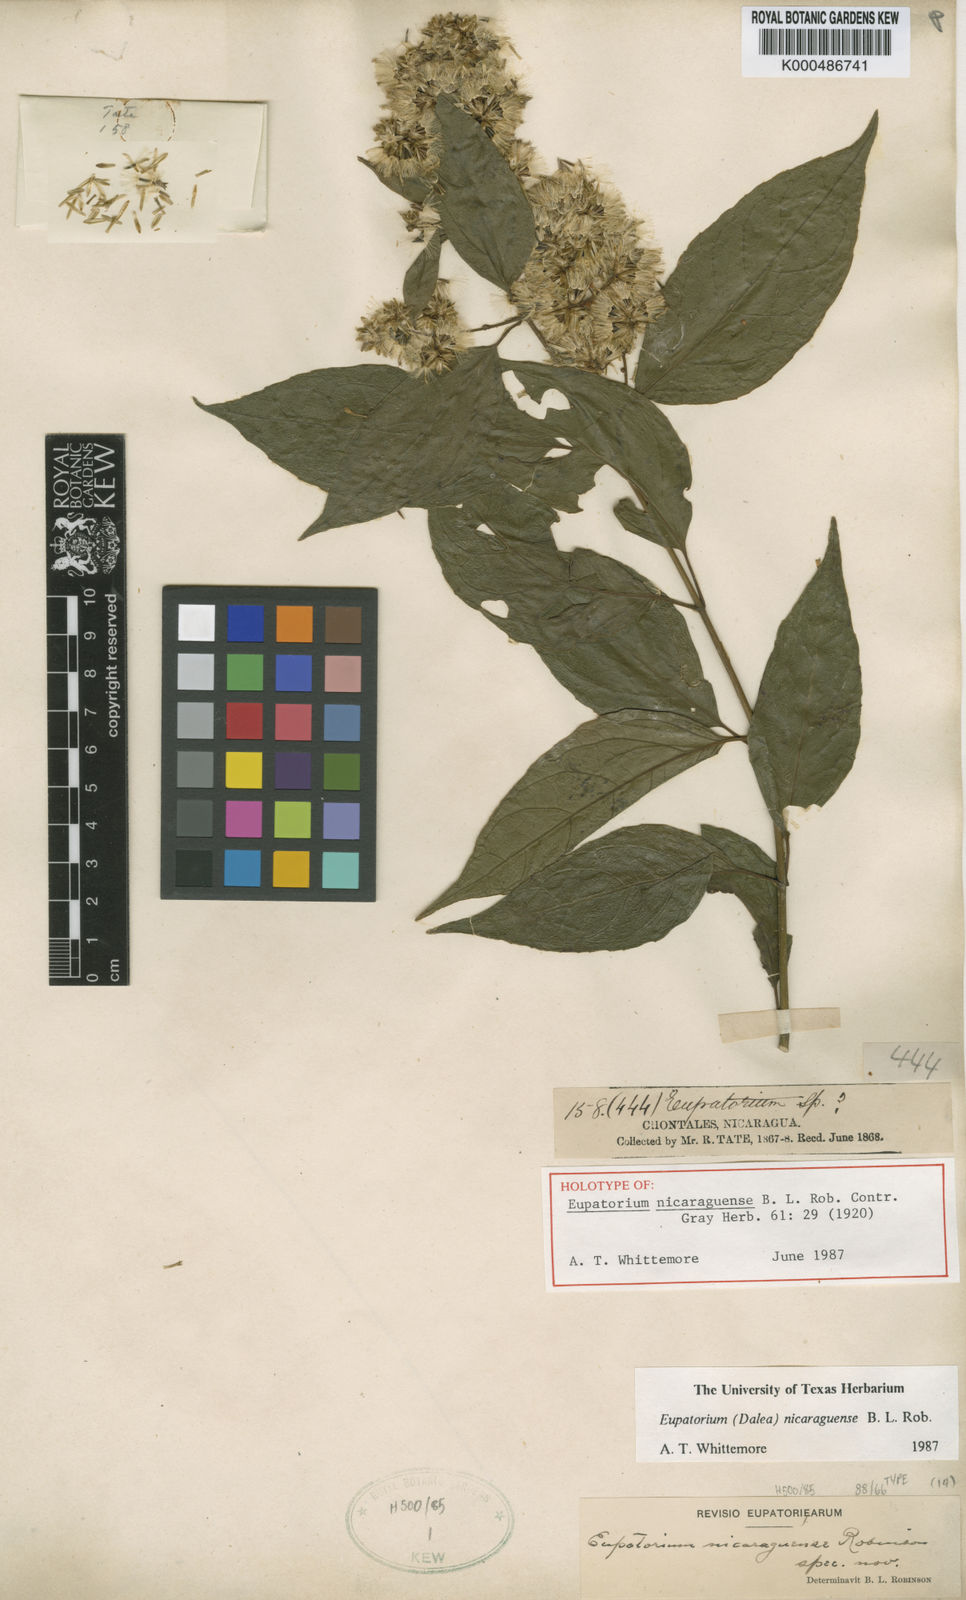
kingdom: Plantae
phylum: Tracheophyta
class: Magnoliopsida
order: Asterales
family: Asteraceae
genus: Critonia
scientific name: Critonia nicaraguensis
